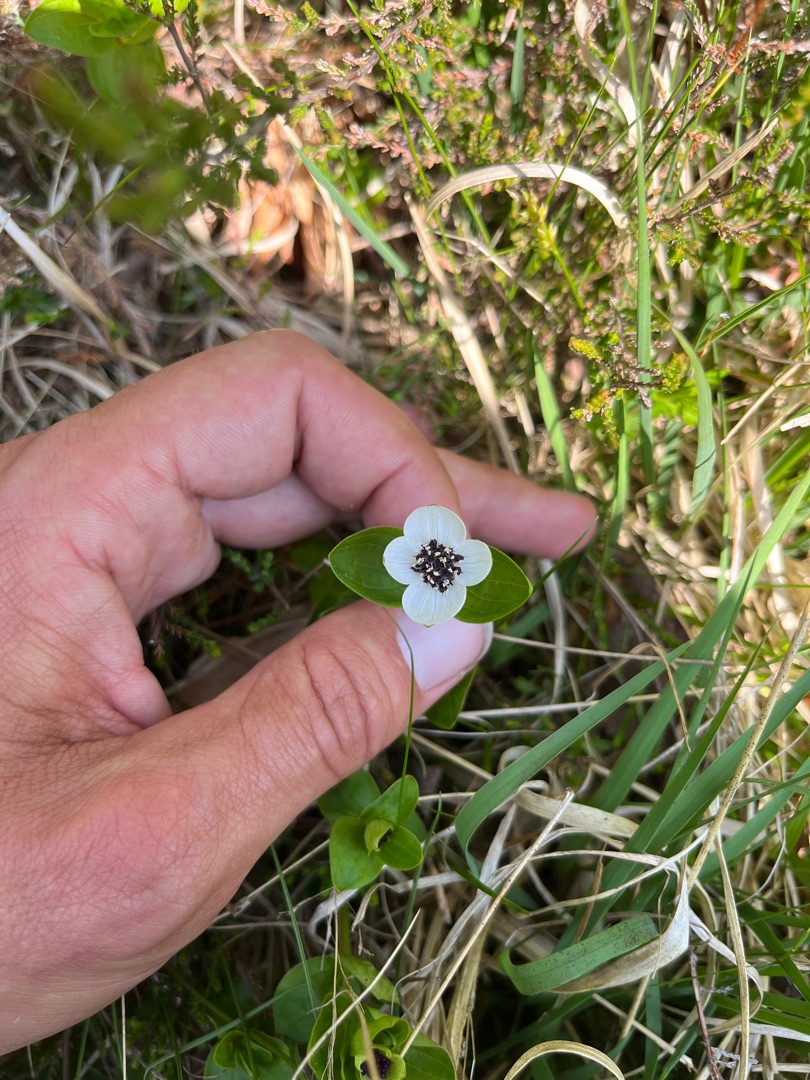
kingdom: Plantae
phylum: Tracheophyta
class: Magnoliopsida
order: Cornales
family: Cornaceae
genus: Cornus
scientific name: Cornus suecica
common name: Hønsebær
